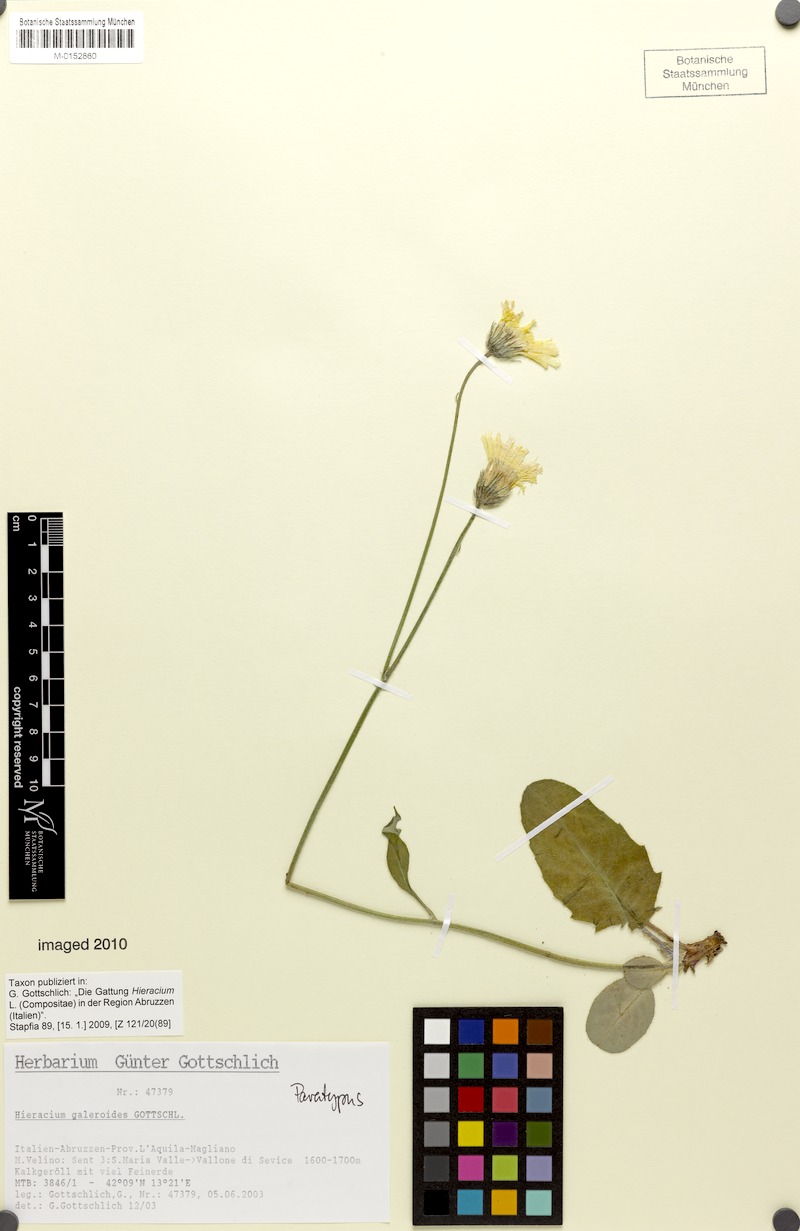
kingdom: Plantae
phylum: Tracheophyta
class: Magnoliopsida
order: Asterales
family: Asteraceae
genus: Hieracium
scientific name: Hieracium galeroides
